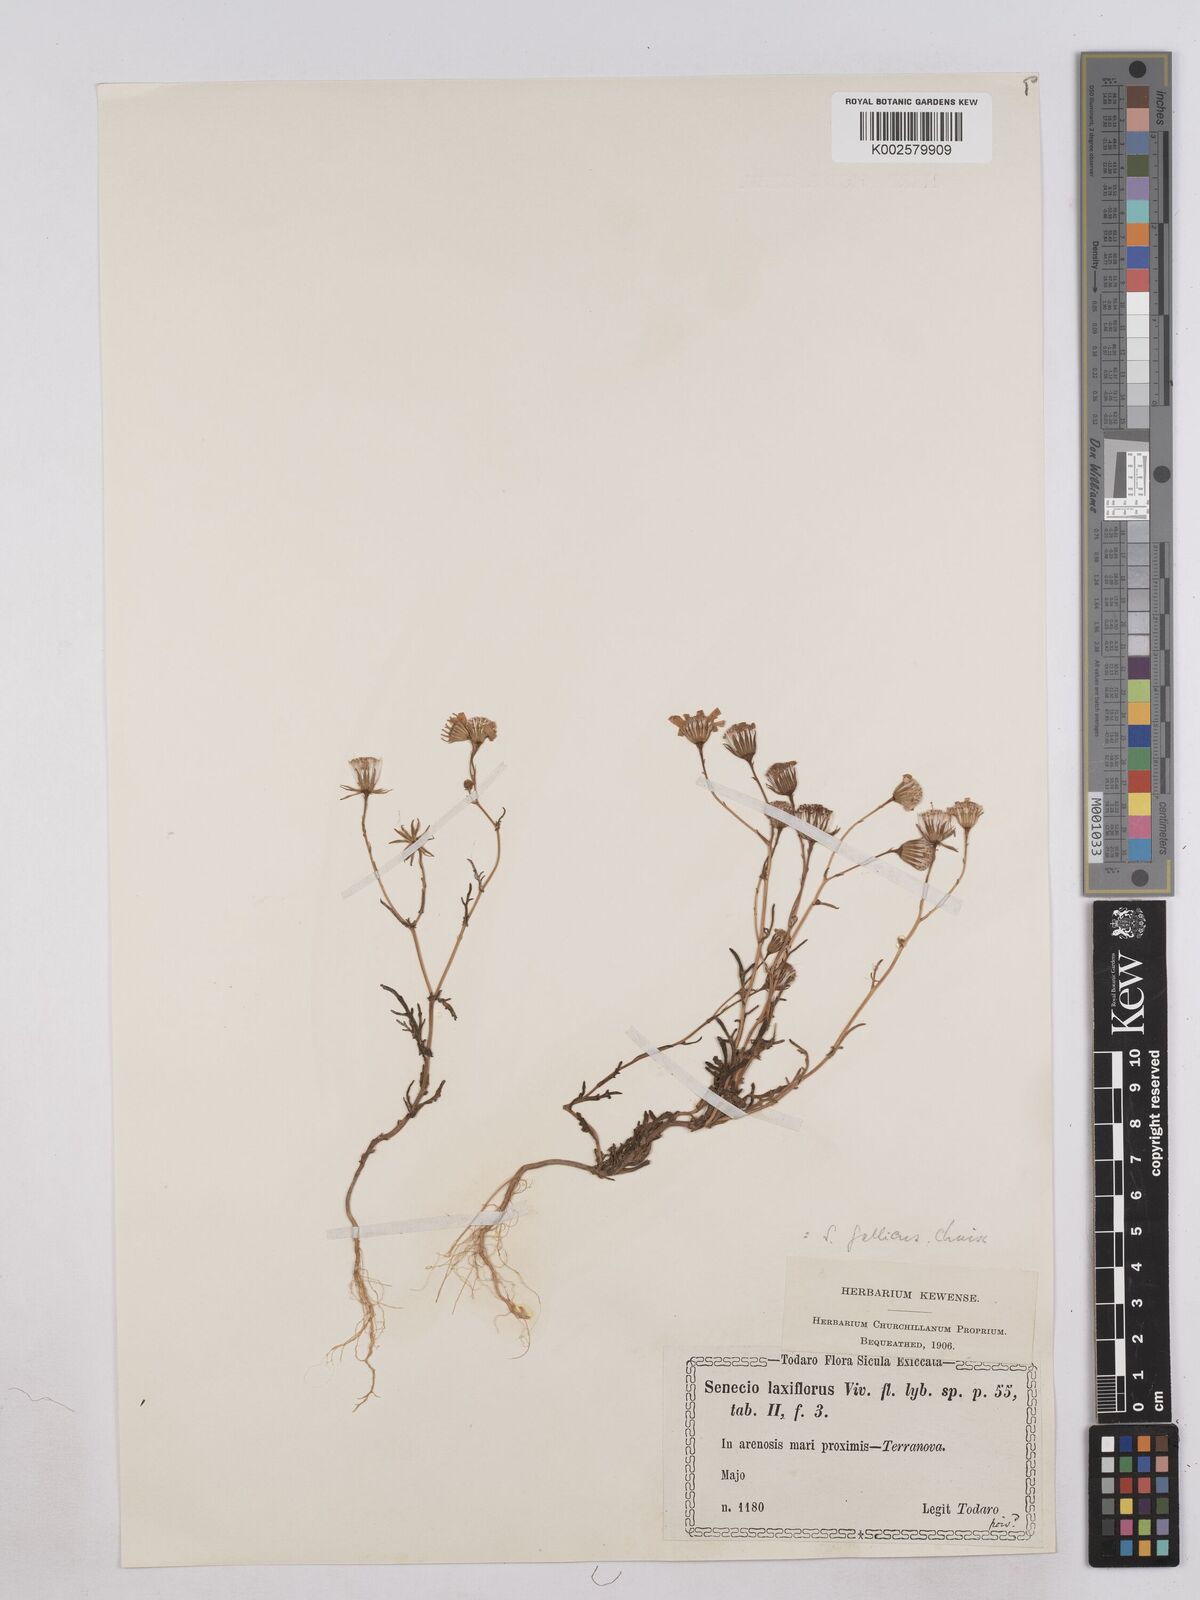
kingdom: Plantae
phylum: Tracheophyta
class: Magnoliopsida
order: Asterales
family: Asteraceae
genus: Senecio
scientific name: Senecio
